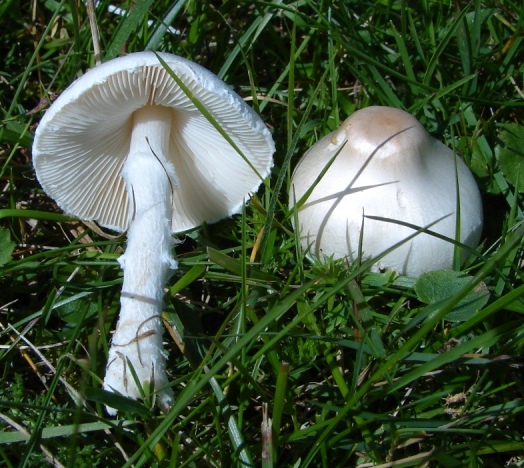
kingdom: Fungi
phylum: Basidiomycota
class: Agaricomycetes
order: Agaricales
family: Agaricaceae
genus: Lepiota
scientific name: Lepiota erminea
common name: hvid parasolhat
